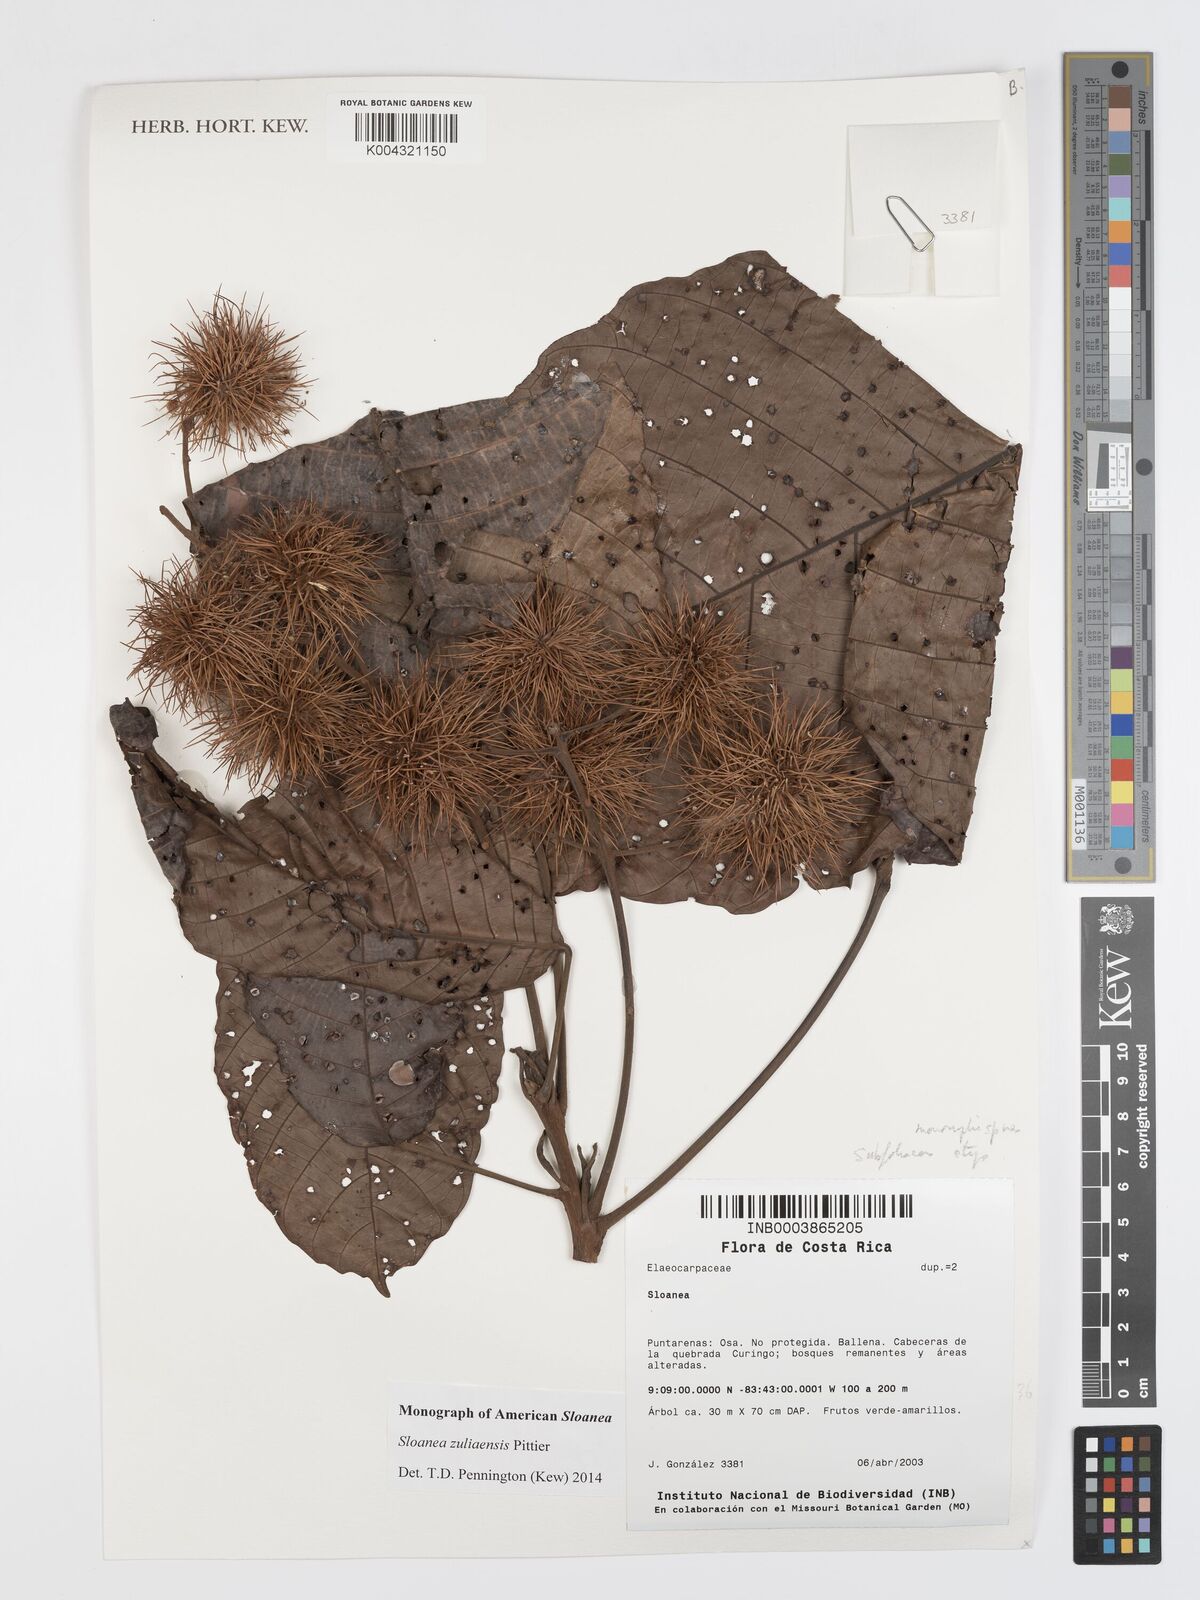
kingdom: Plantae
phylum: Tracheophyta
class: Magnoliopsida
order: Oxalidales
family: Elaeocarpaceae
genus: Sloanea
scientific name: Sloanea zuliaensis
